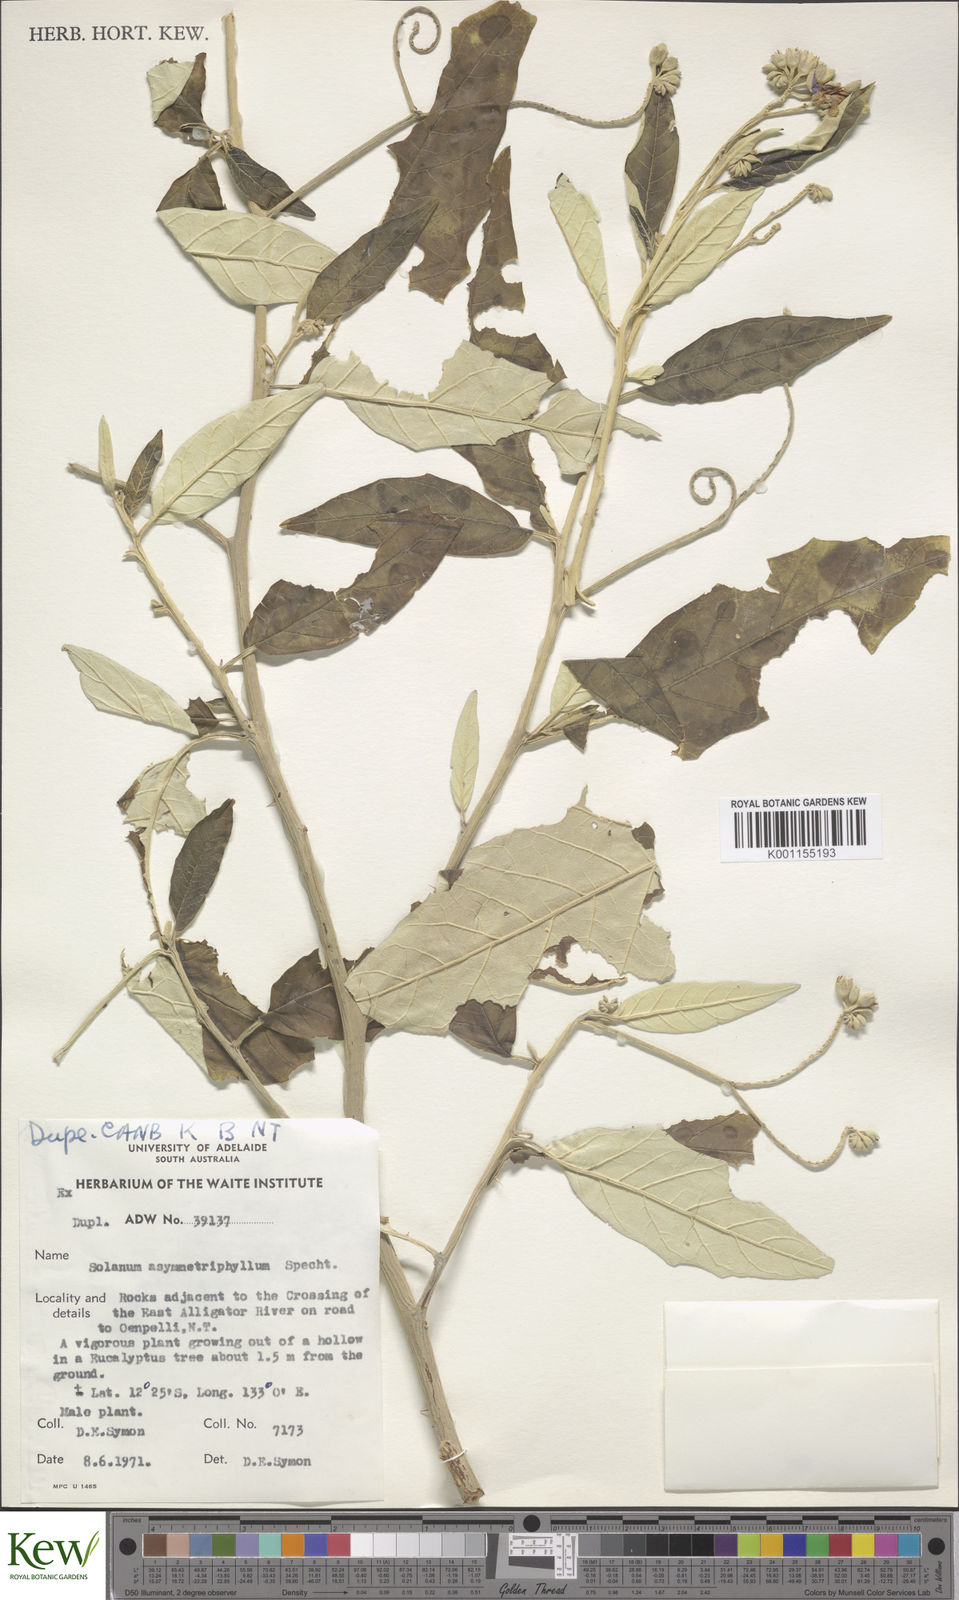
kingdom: Plantae
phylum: Tracheophyta
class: Magnoliopsida
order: Solanales
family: Solanaceae
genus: Solanum
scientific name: Solanum asymmetriphyllum
